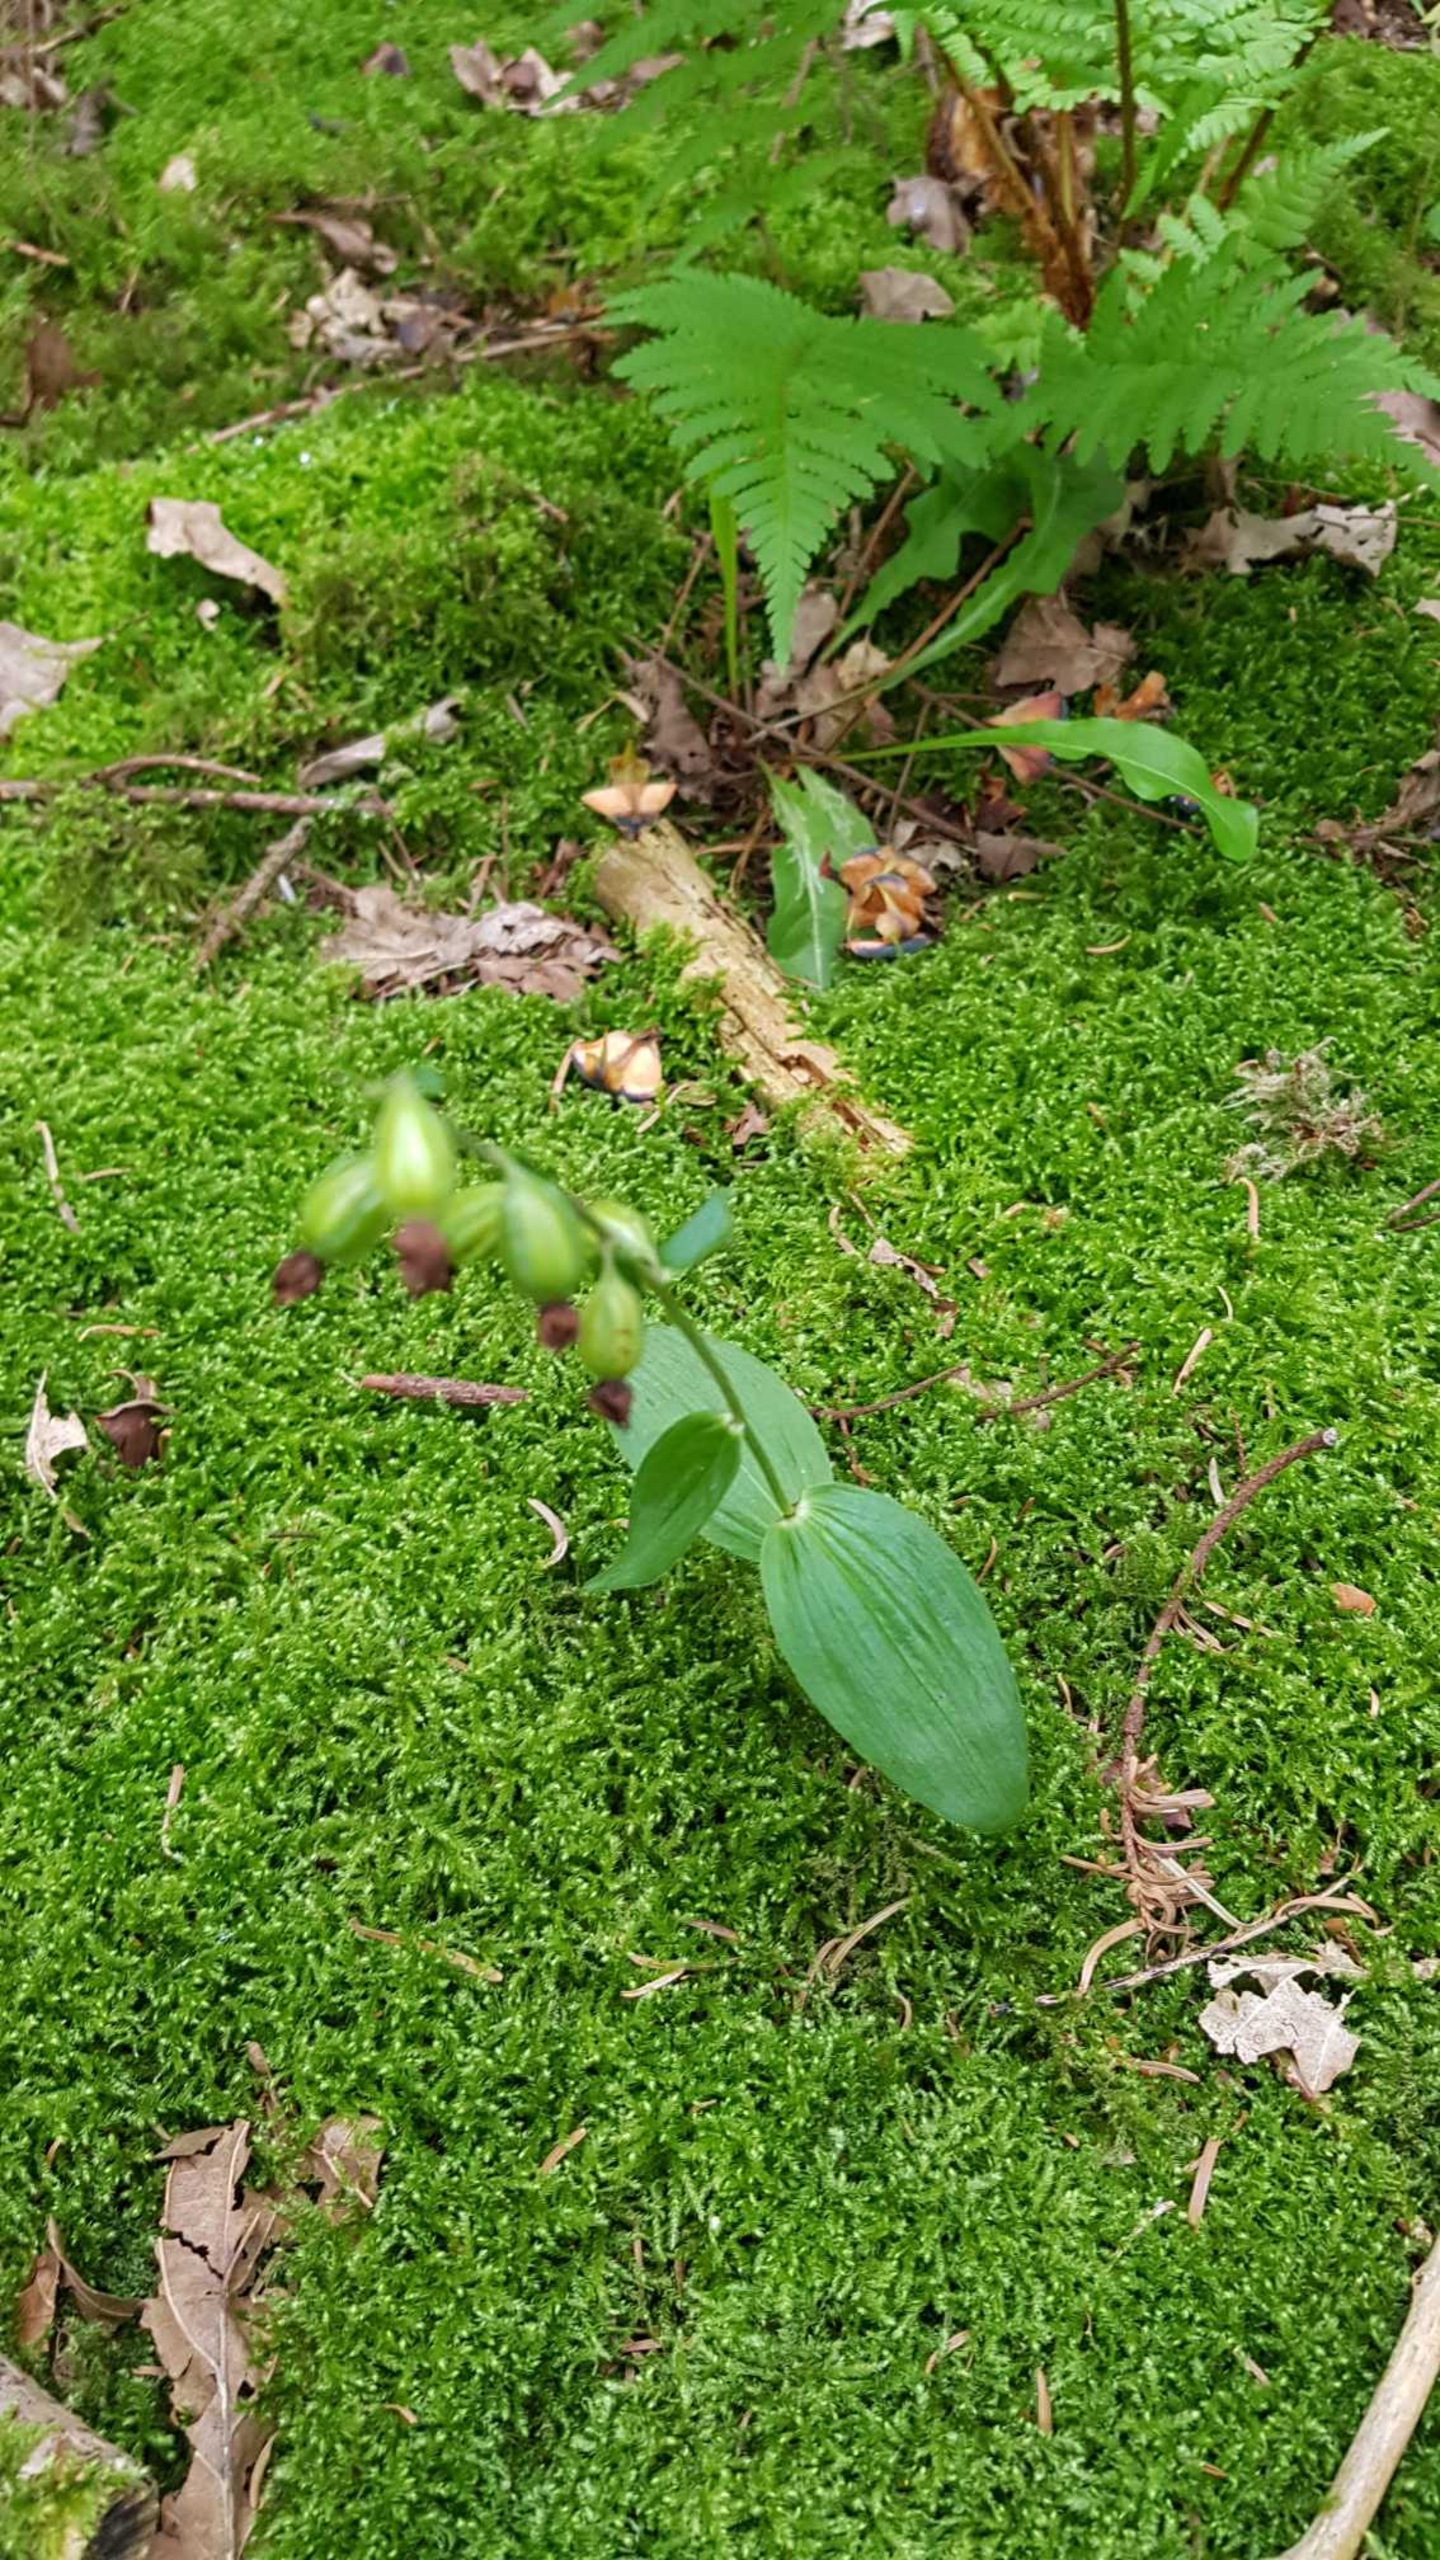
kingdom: Plantae
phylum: Tracheophyta
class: Liliopsida
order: Asparagales
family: Orchidaceae
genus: Epipactis
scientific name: Epipactis helleborine
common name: Skov-hullæbe
